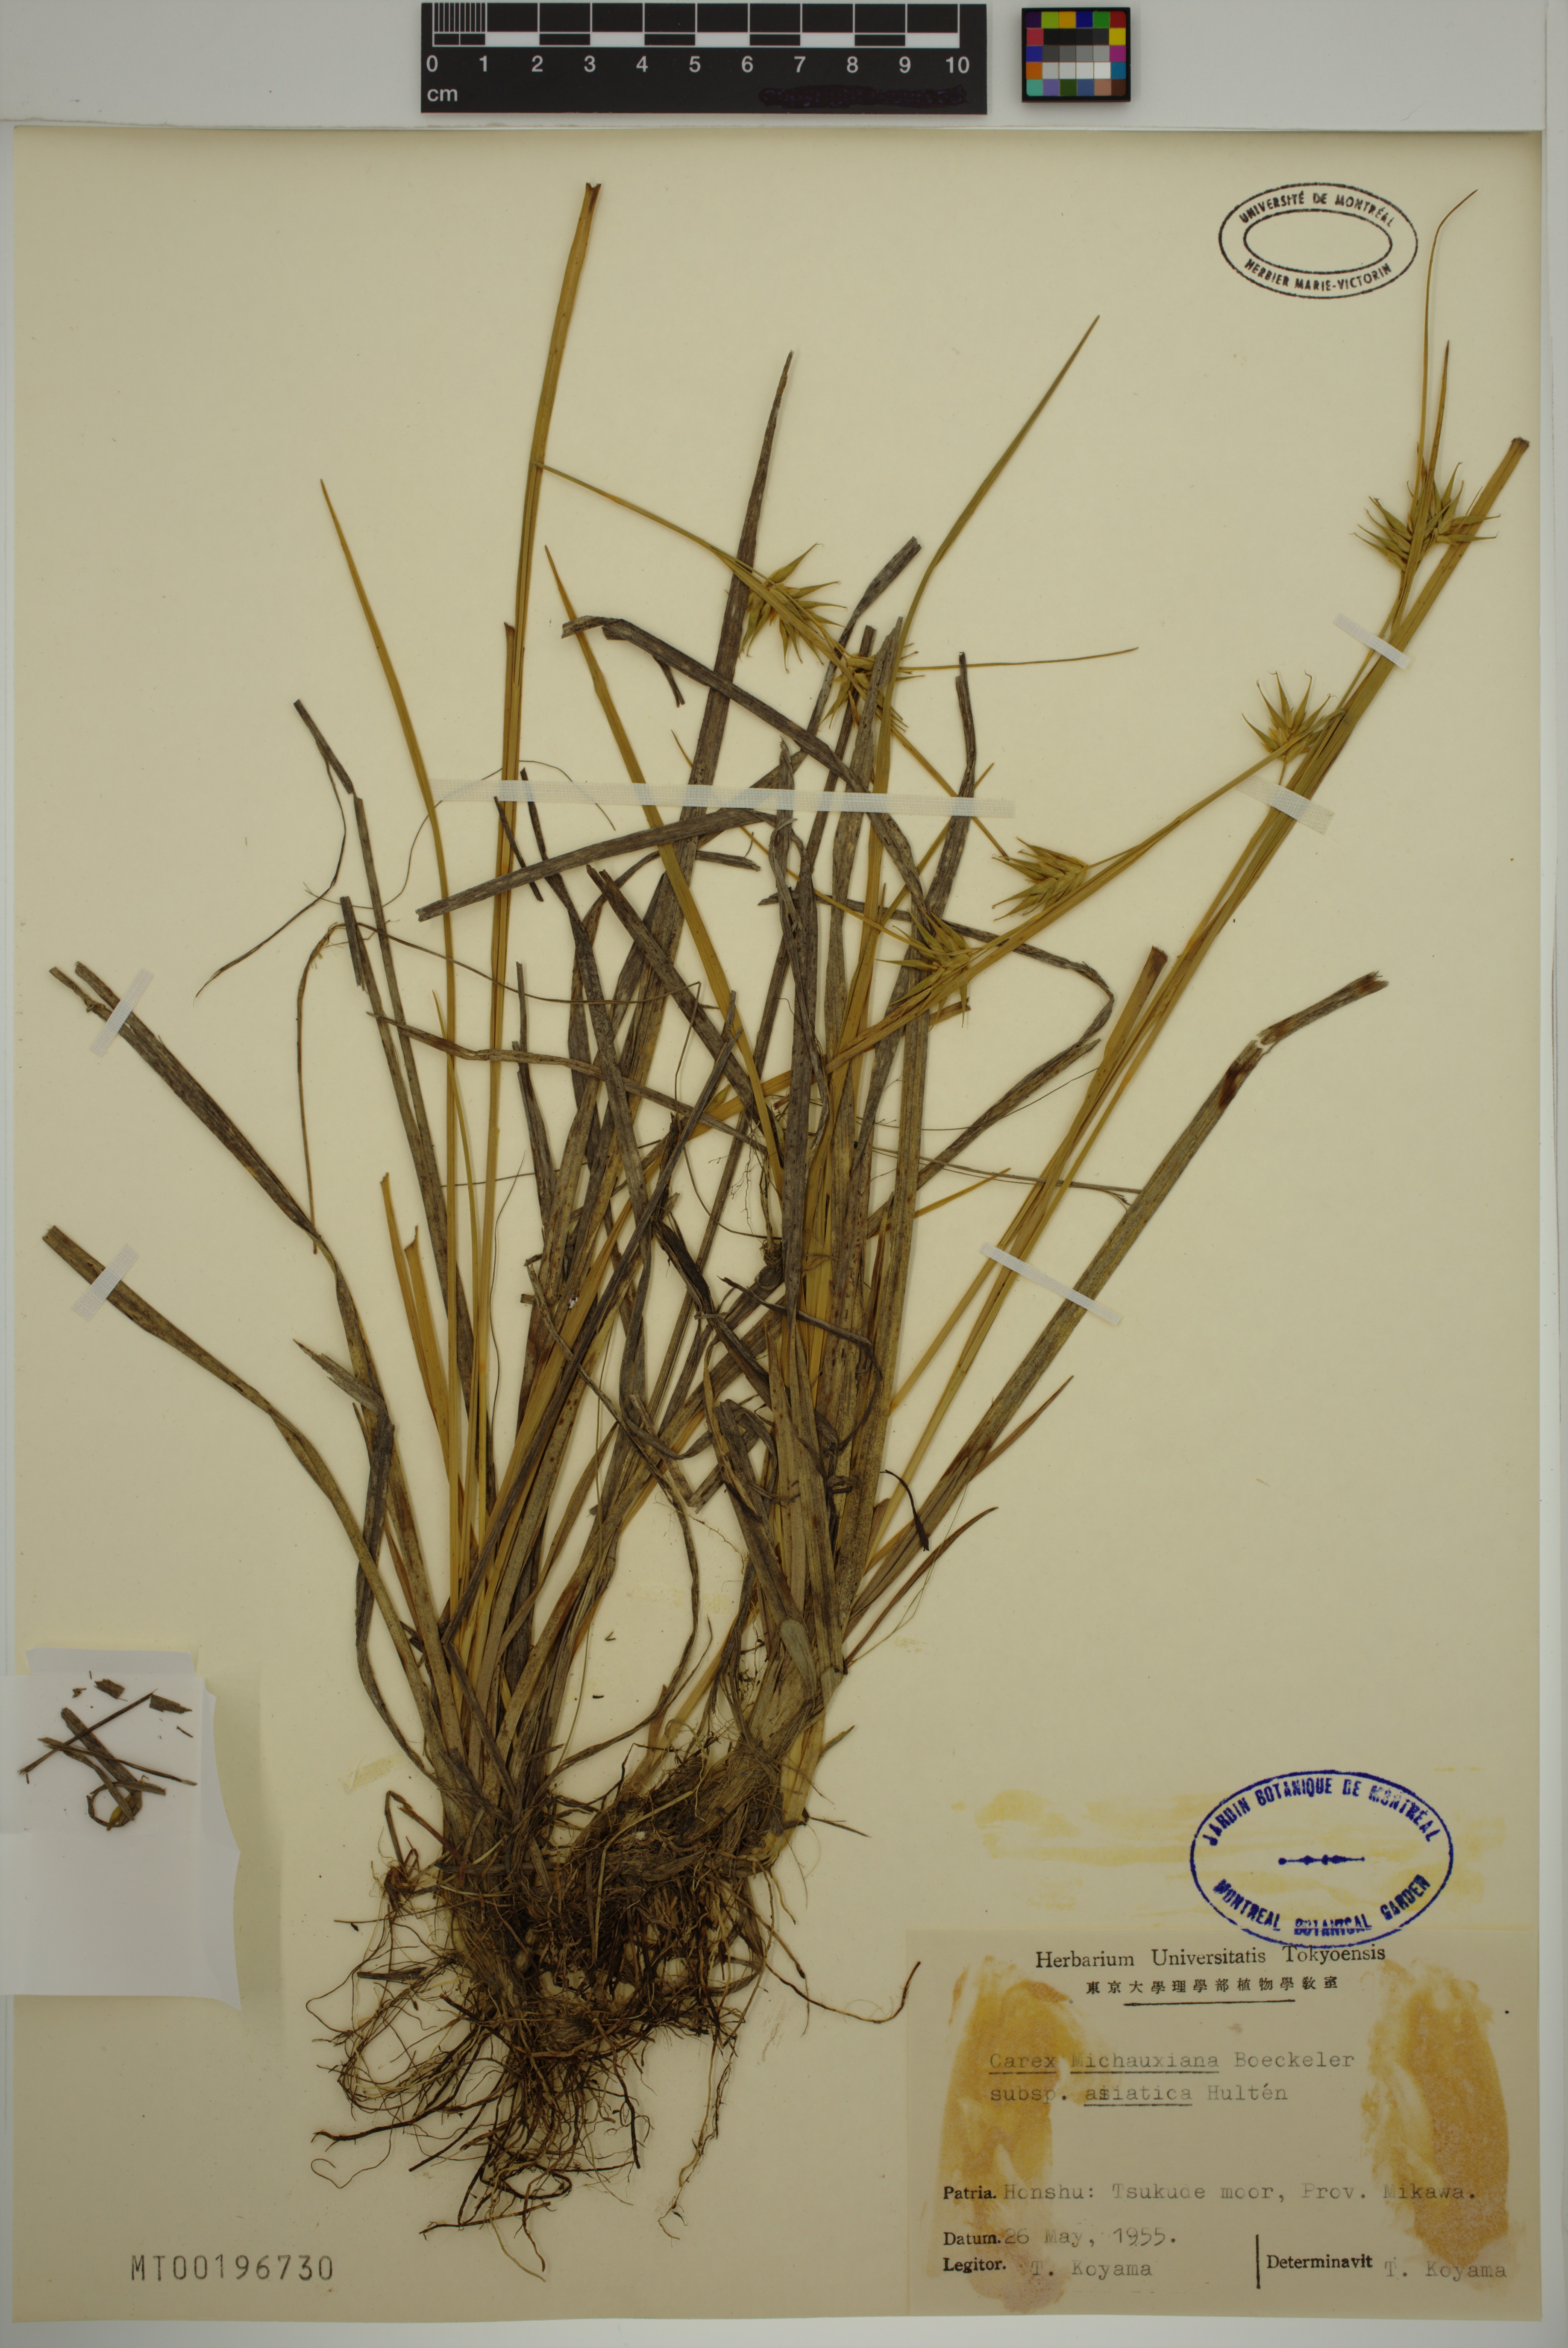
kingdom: Plantae
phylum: Tracheophyta
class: Liliopsida
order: Poales
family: Cyperaceae
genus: Carex
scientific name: Carex michauxiana
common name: Michaux's sedge
